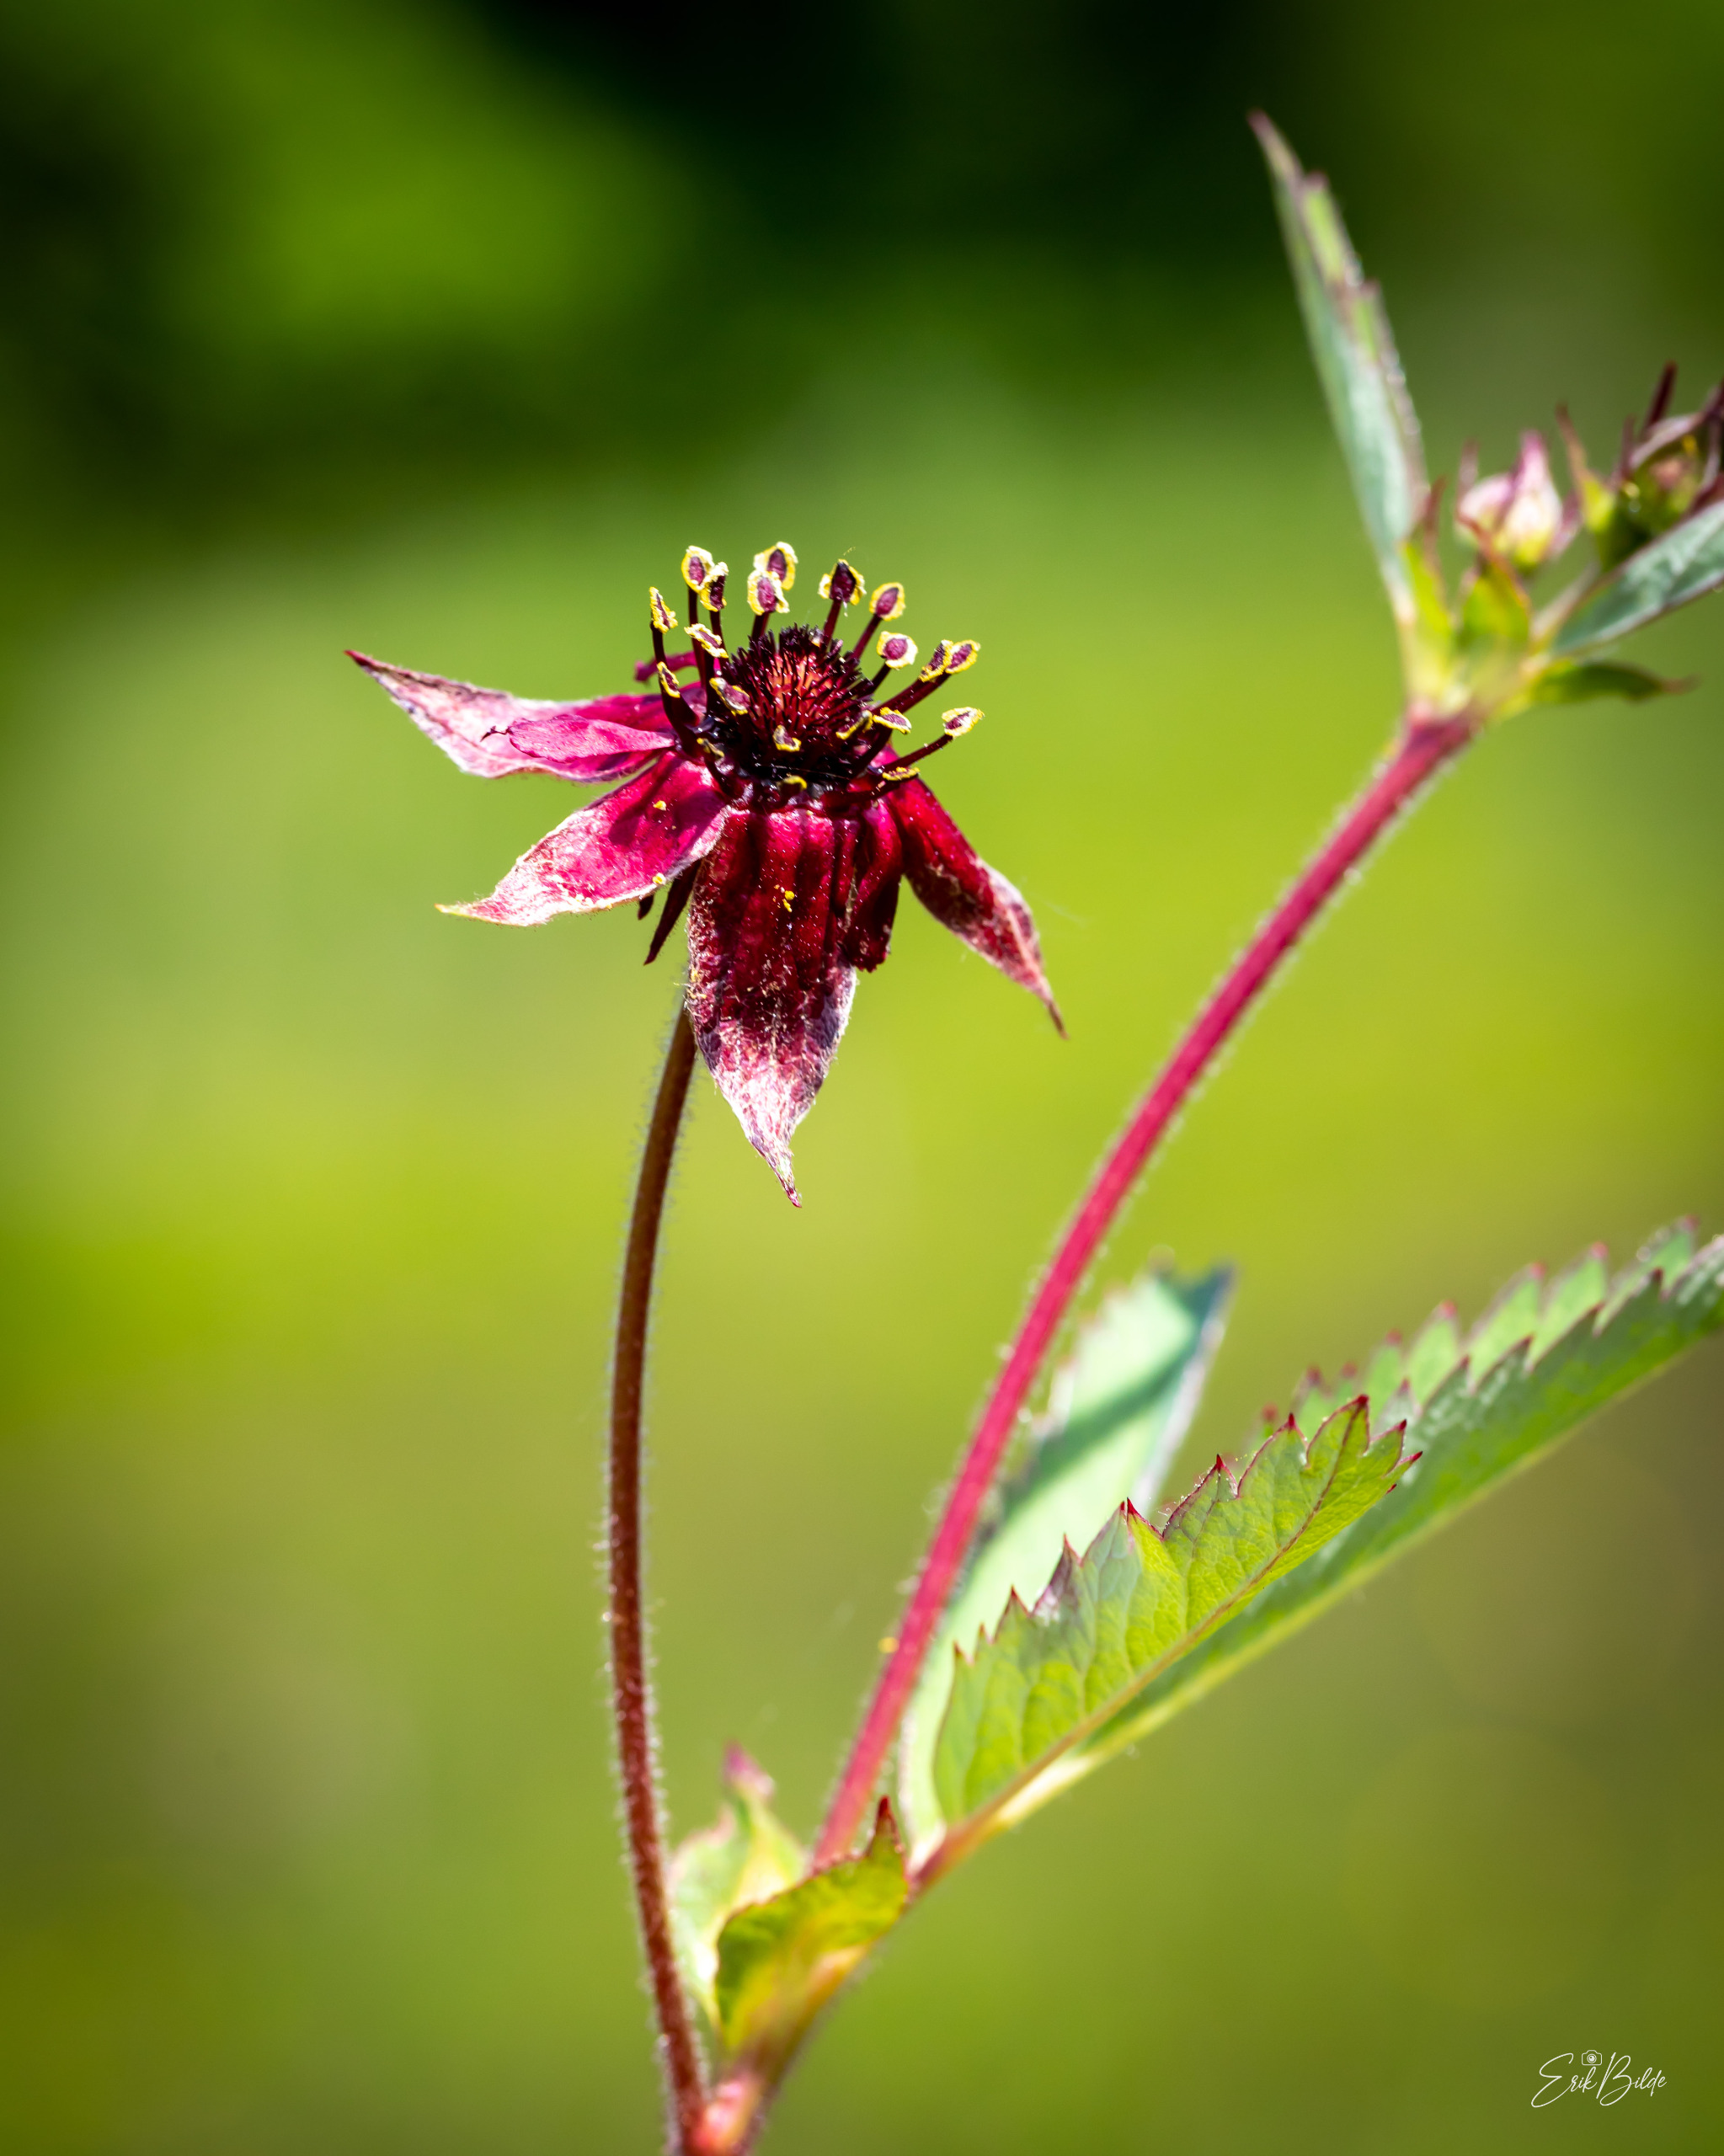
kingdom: Plantae
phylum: Tracheophyta
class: Magnoliopsida
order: Rosales
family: Rosaceae
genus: Comarum
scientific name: Comarum palustre
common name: Kragefod
